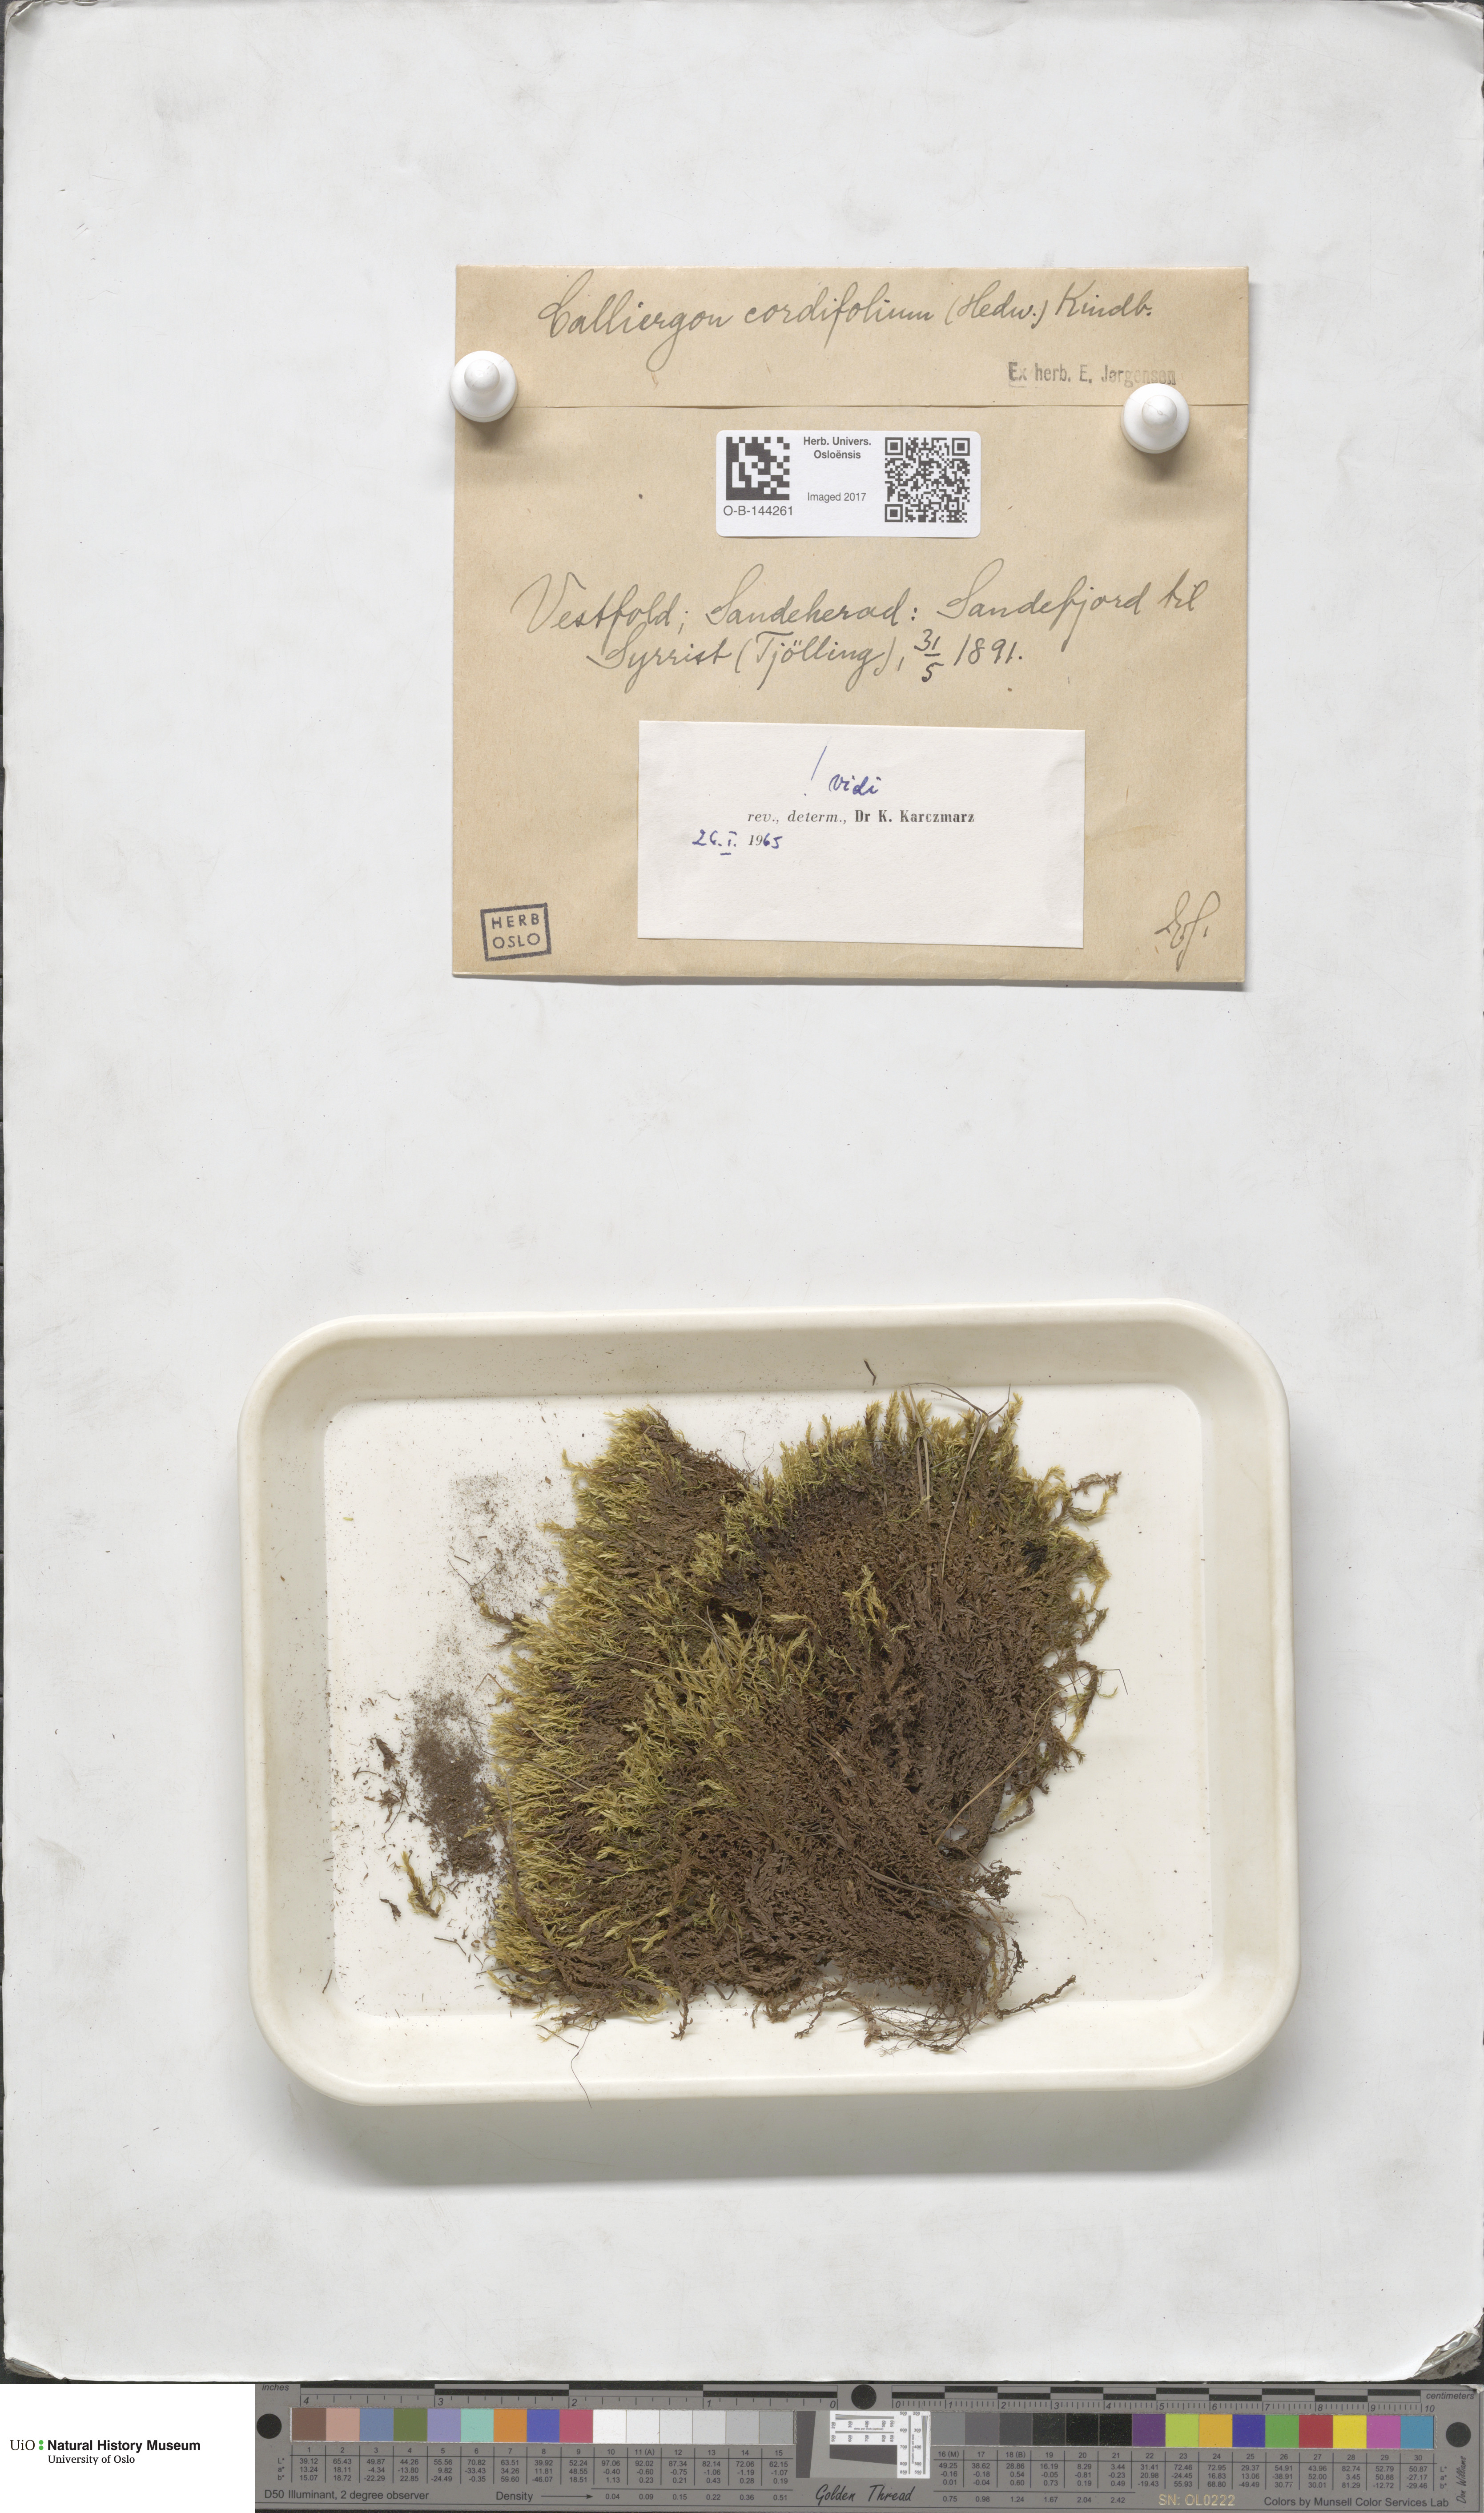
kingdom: Plantae
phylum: Bryophyta
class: Bryopsida
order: Hypnales
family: Calliergonaceae
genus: Calliergon
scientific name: Calliergon cordifolium
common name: Heart-leaved spear moss
